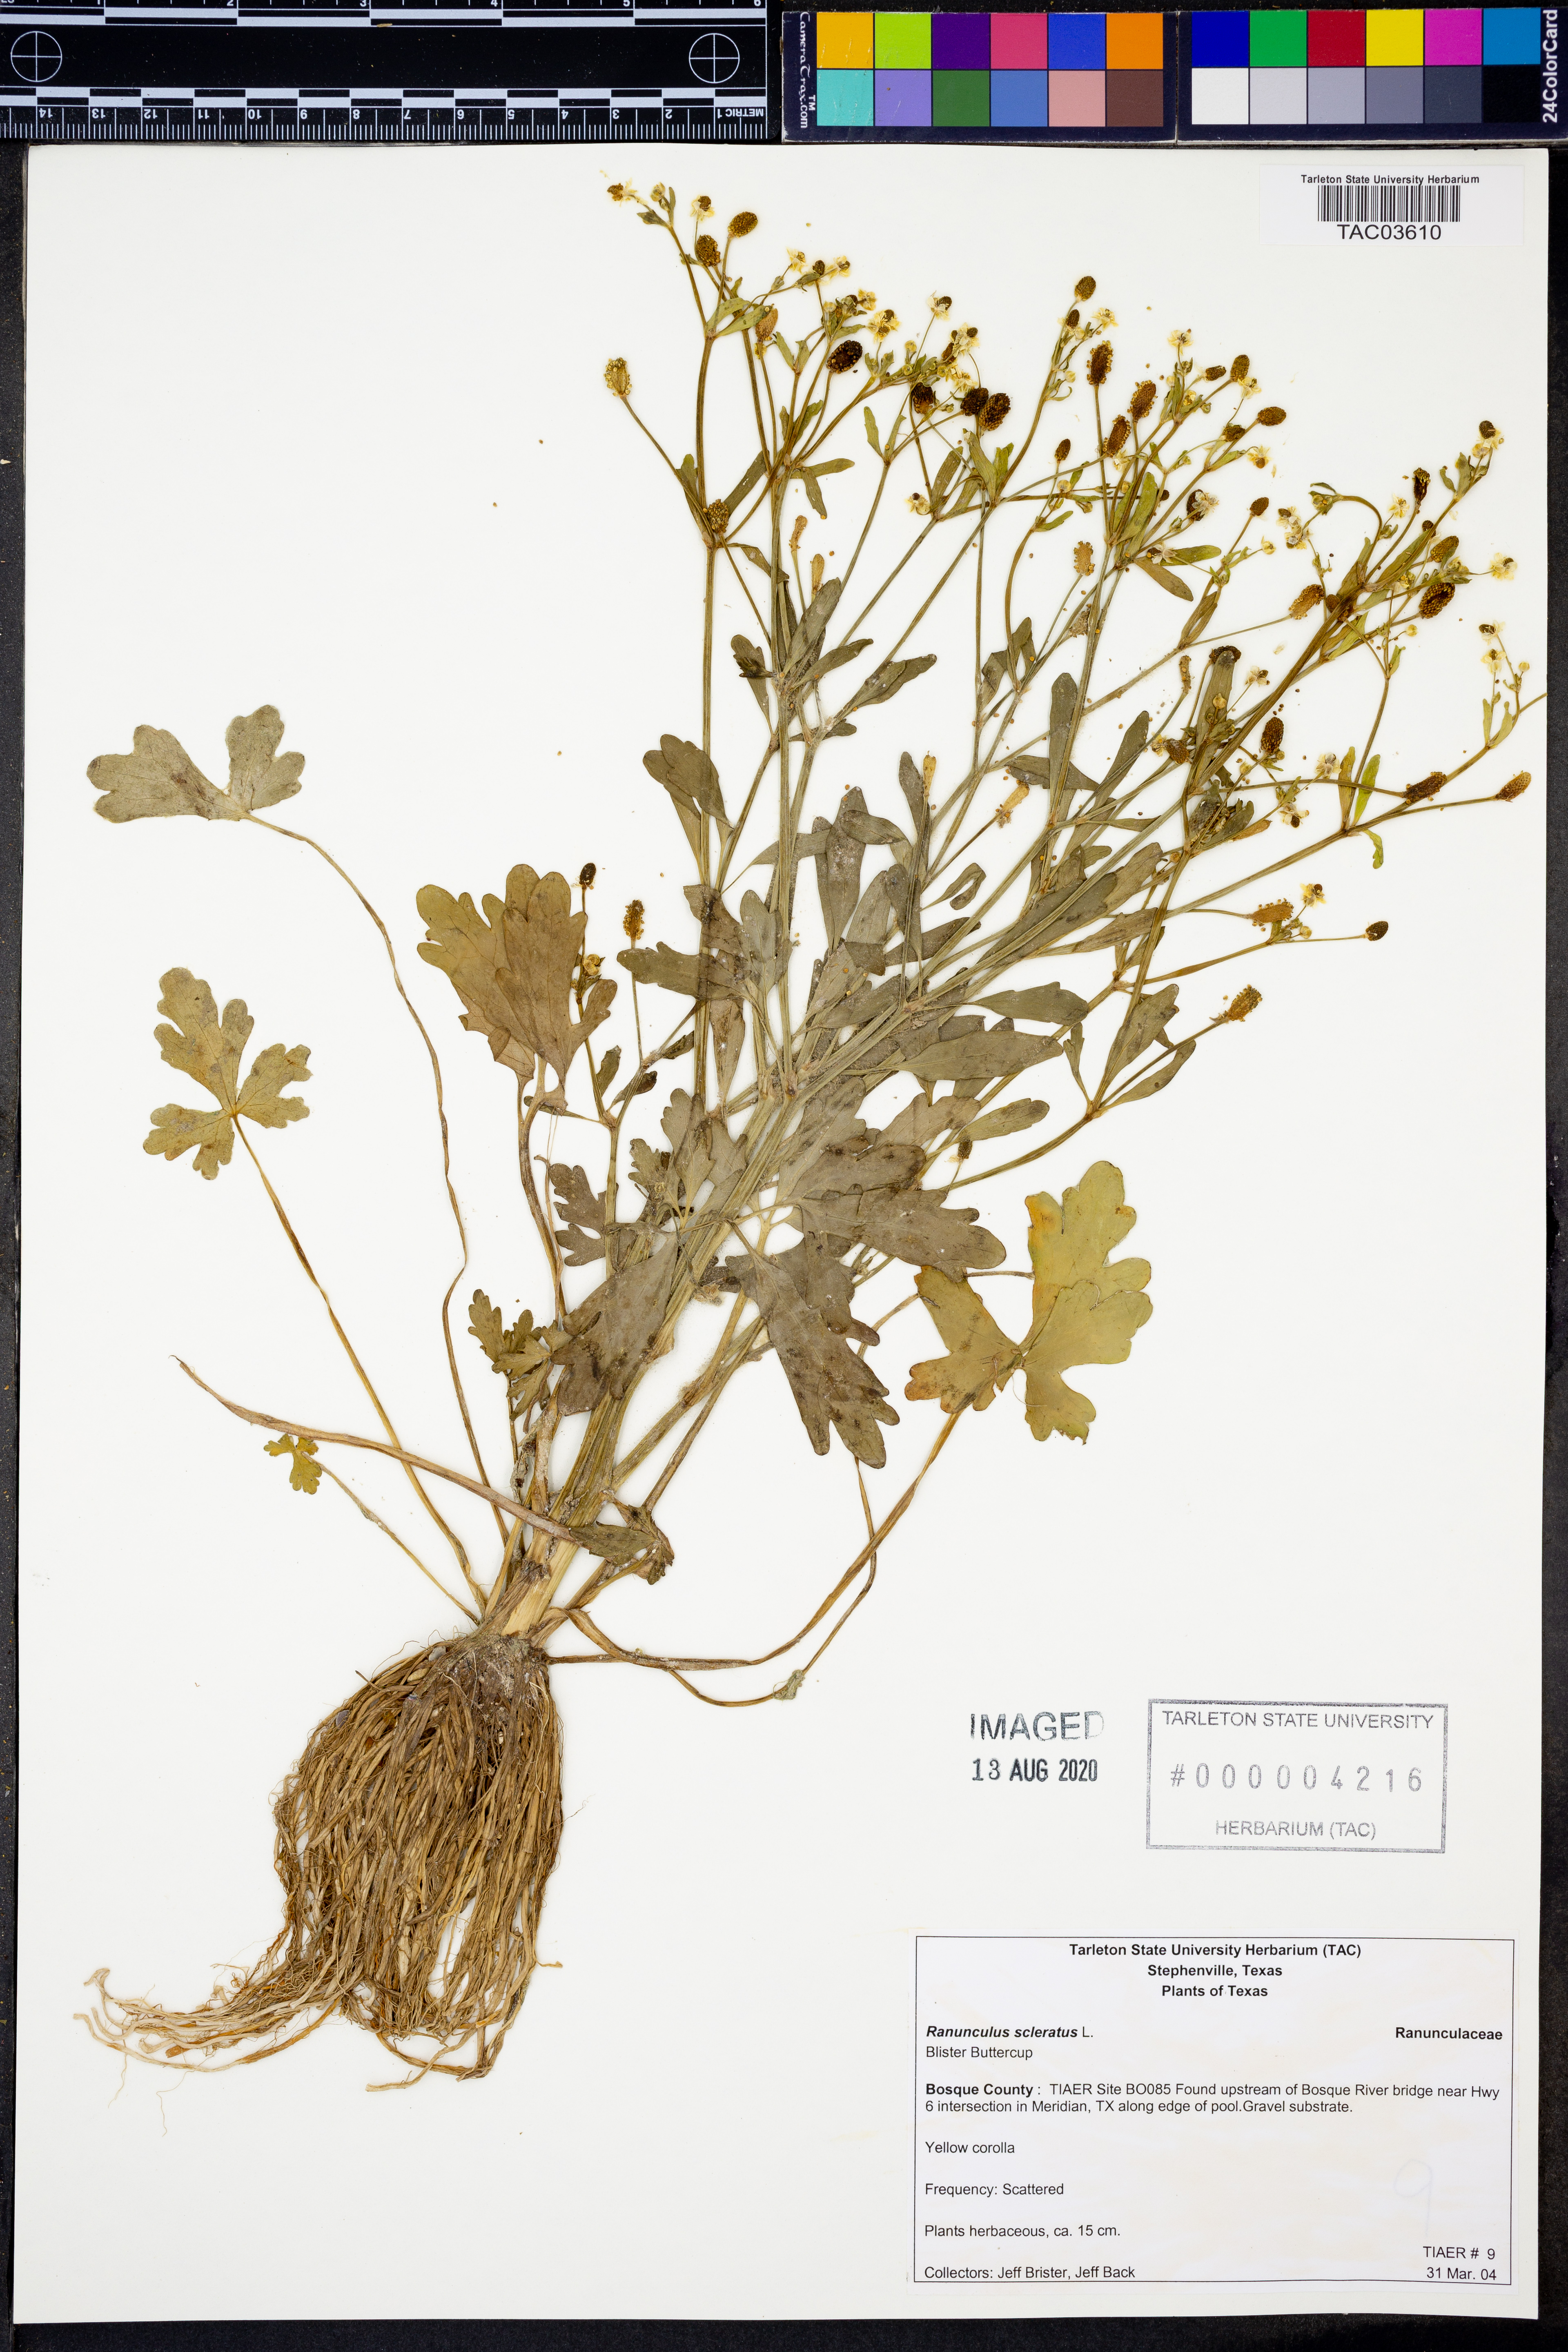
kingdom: Plantae
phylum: Tracheophyta
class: Magnoliopsida
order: Ranunculales
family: Ranunculaceae
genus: Ranunculus
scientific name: Ranunculus sceleratus
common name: Celery-leaved buttercup
